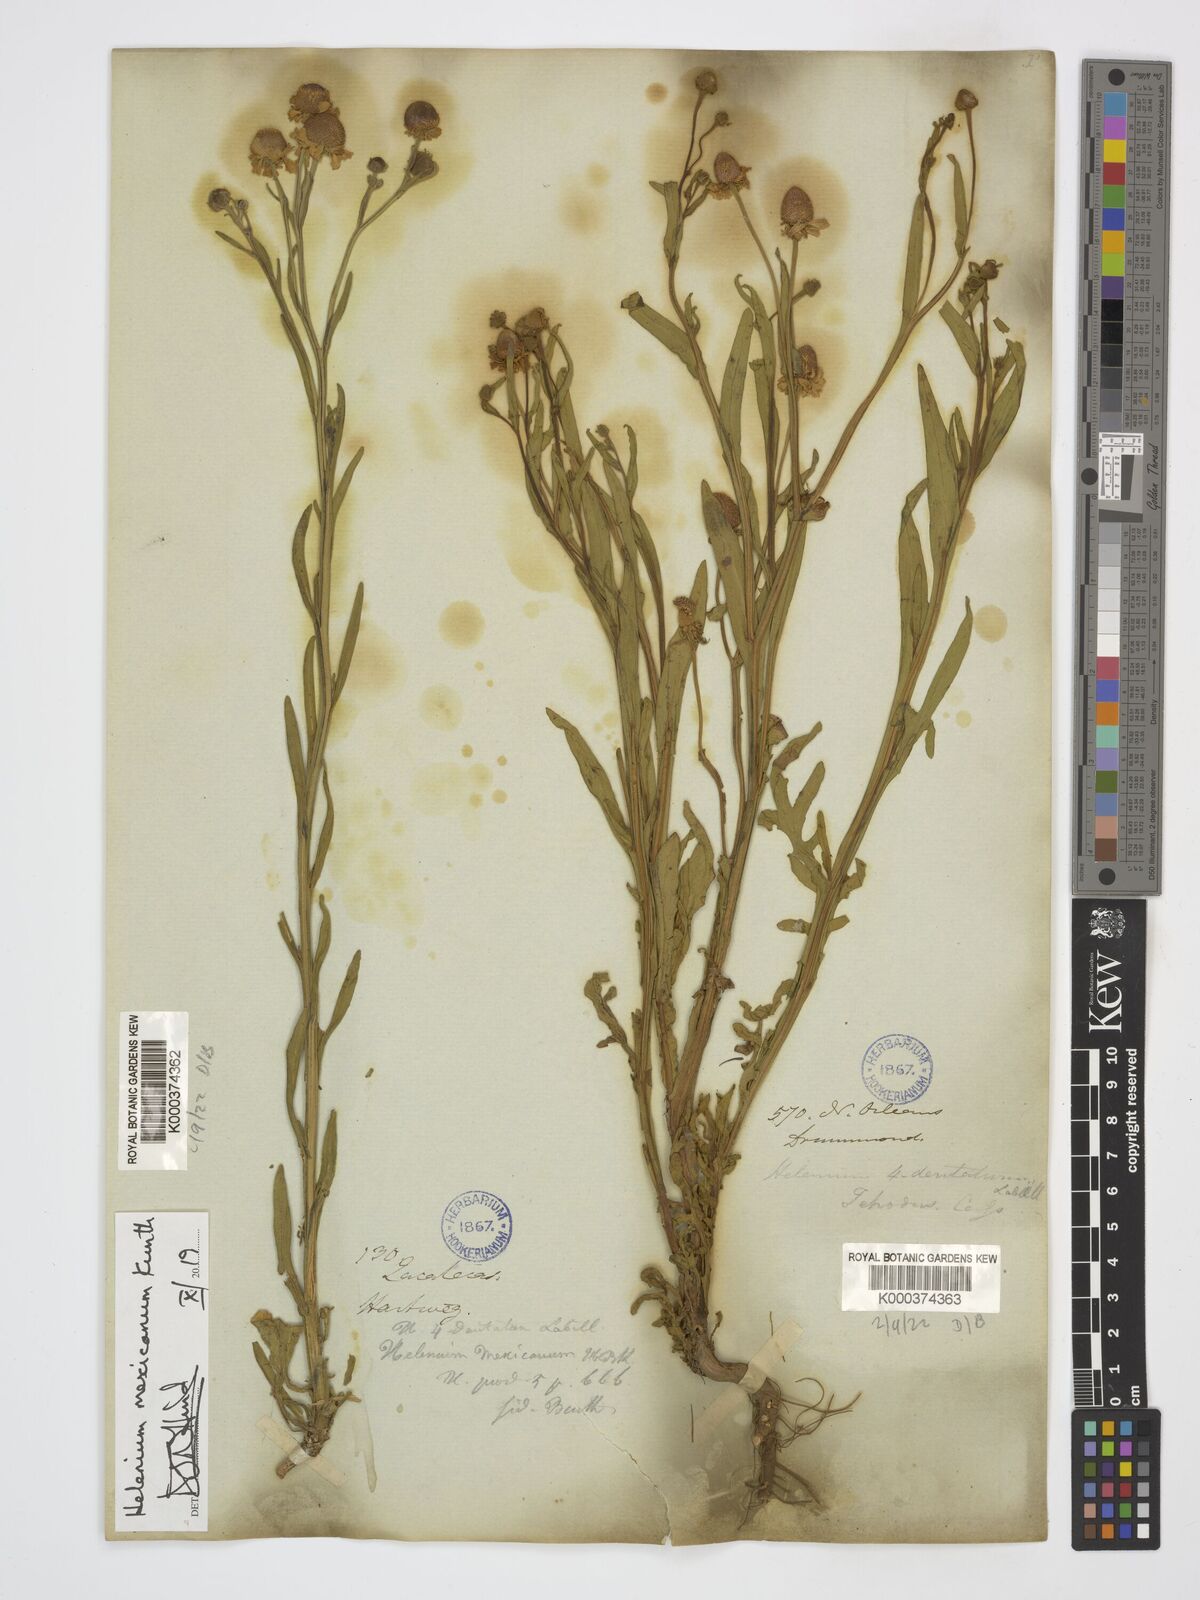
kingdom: Plantae
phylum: Tracheophyta
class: Magnoliopsida
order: Asterales
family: Asteraceae
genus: Helenium
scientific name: Helenium mexicanum
